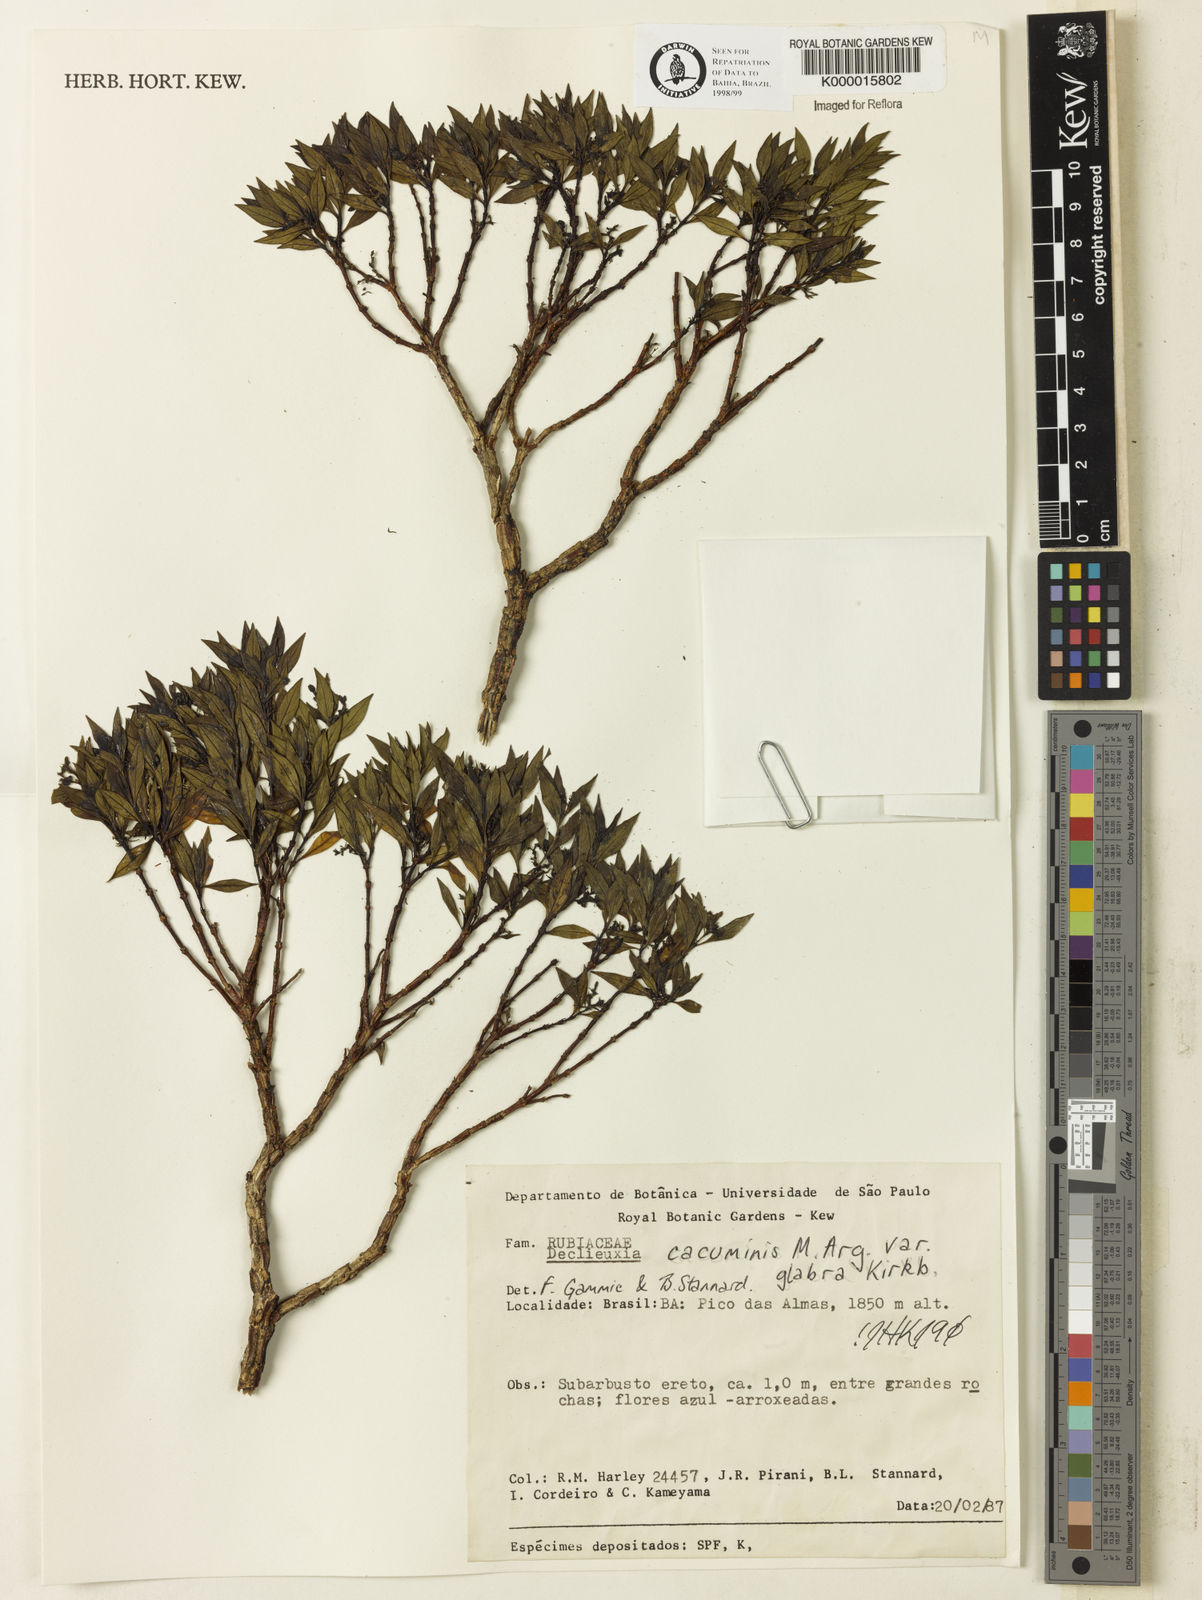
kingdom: Plantae
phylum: Tracheophyta
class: Magnoliopsida
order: Gentianales
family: Rubiaceae
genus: Declieuxia
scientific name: Declieuxia cacuminis
